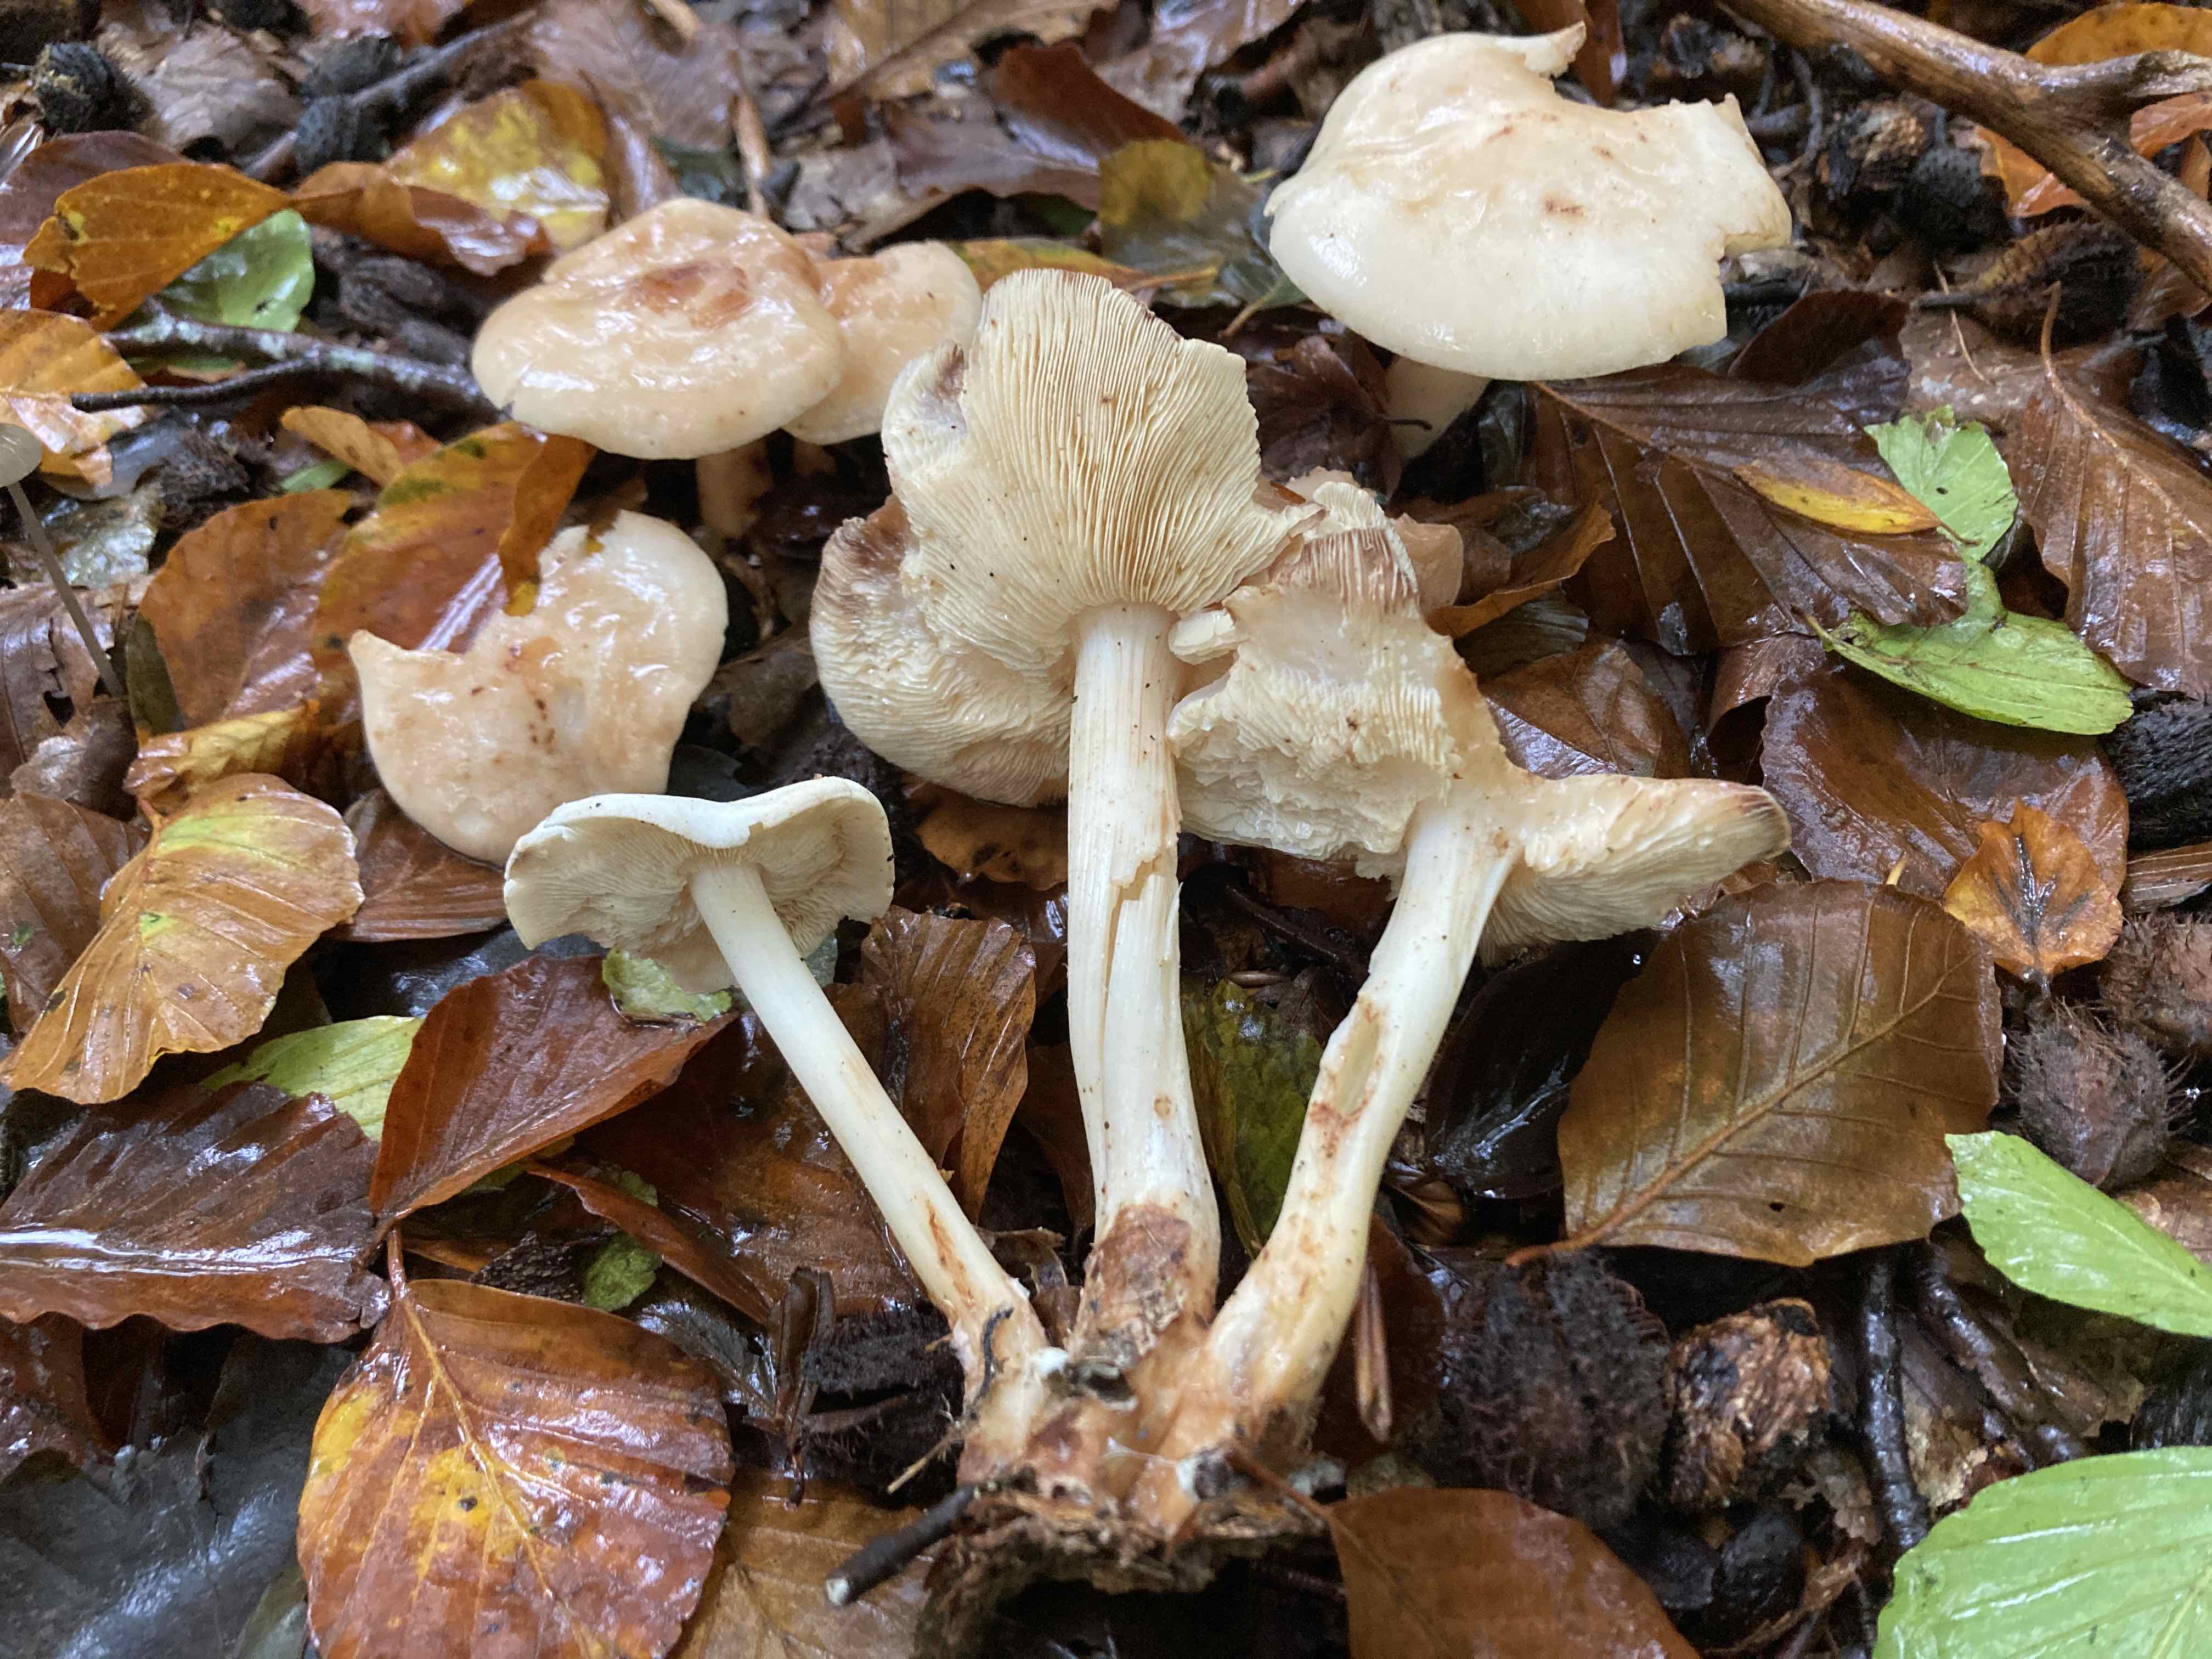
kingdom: Fungi
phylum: Basidiomycota
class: Agaricomycetes
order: Agaricales
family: Omphalotaceae
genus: Rhodocollybia
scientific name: Rhodocollybia maculata
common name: plettet fladhat
